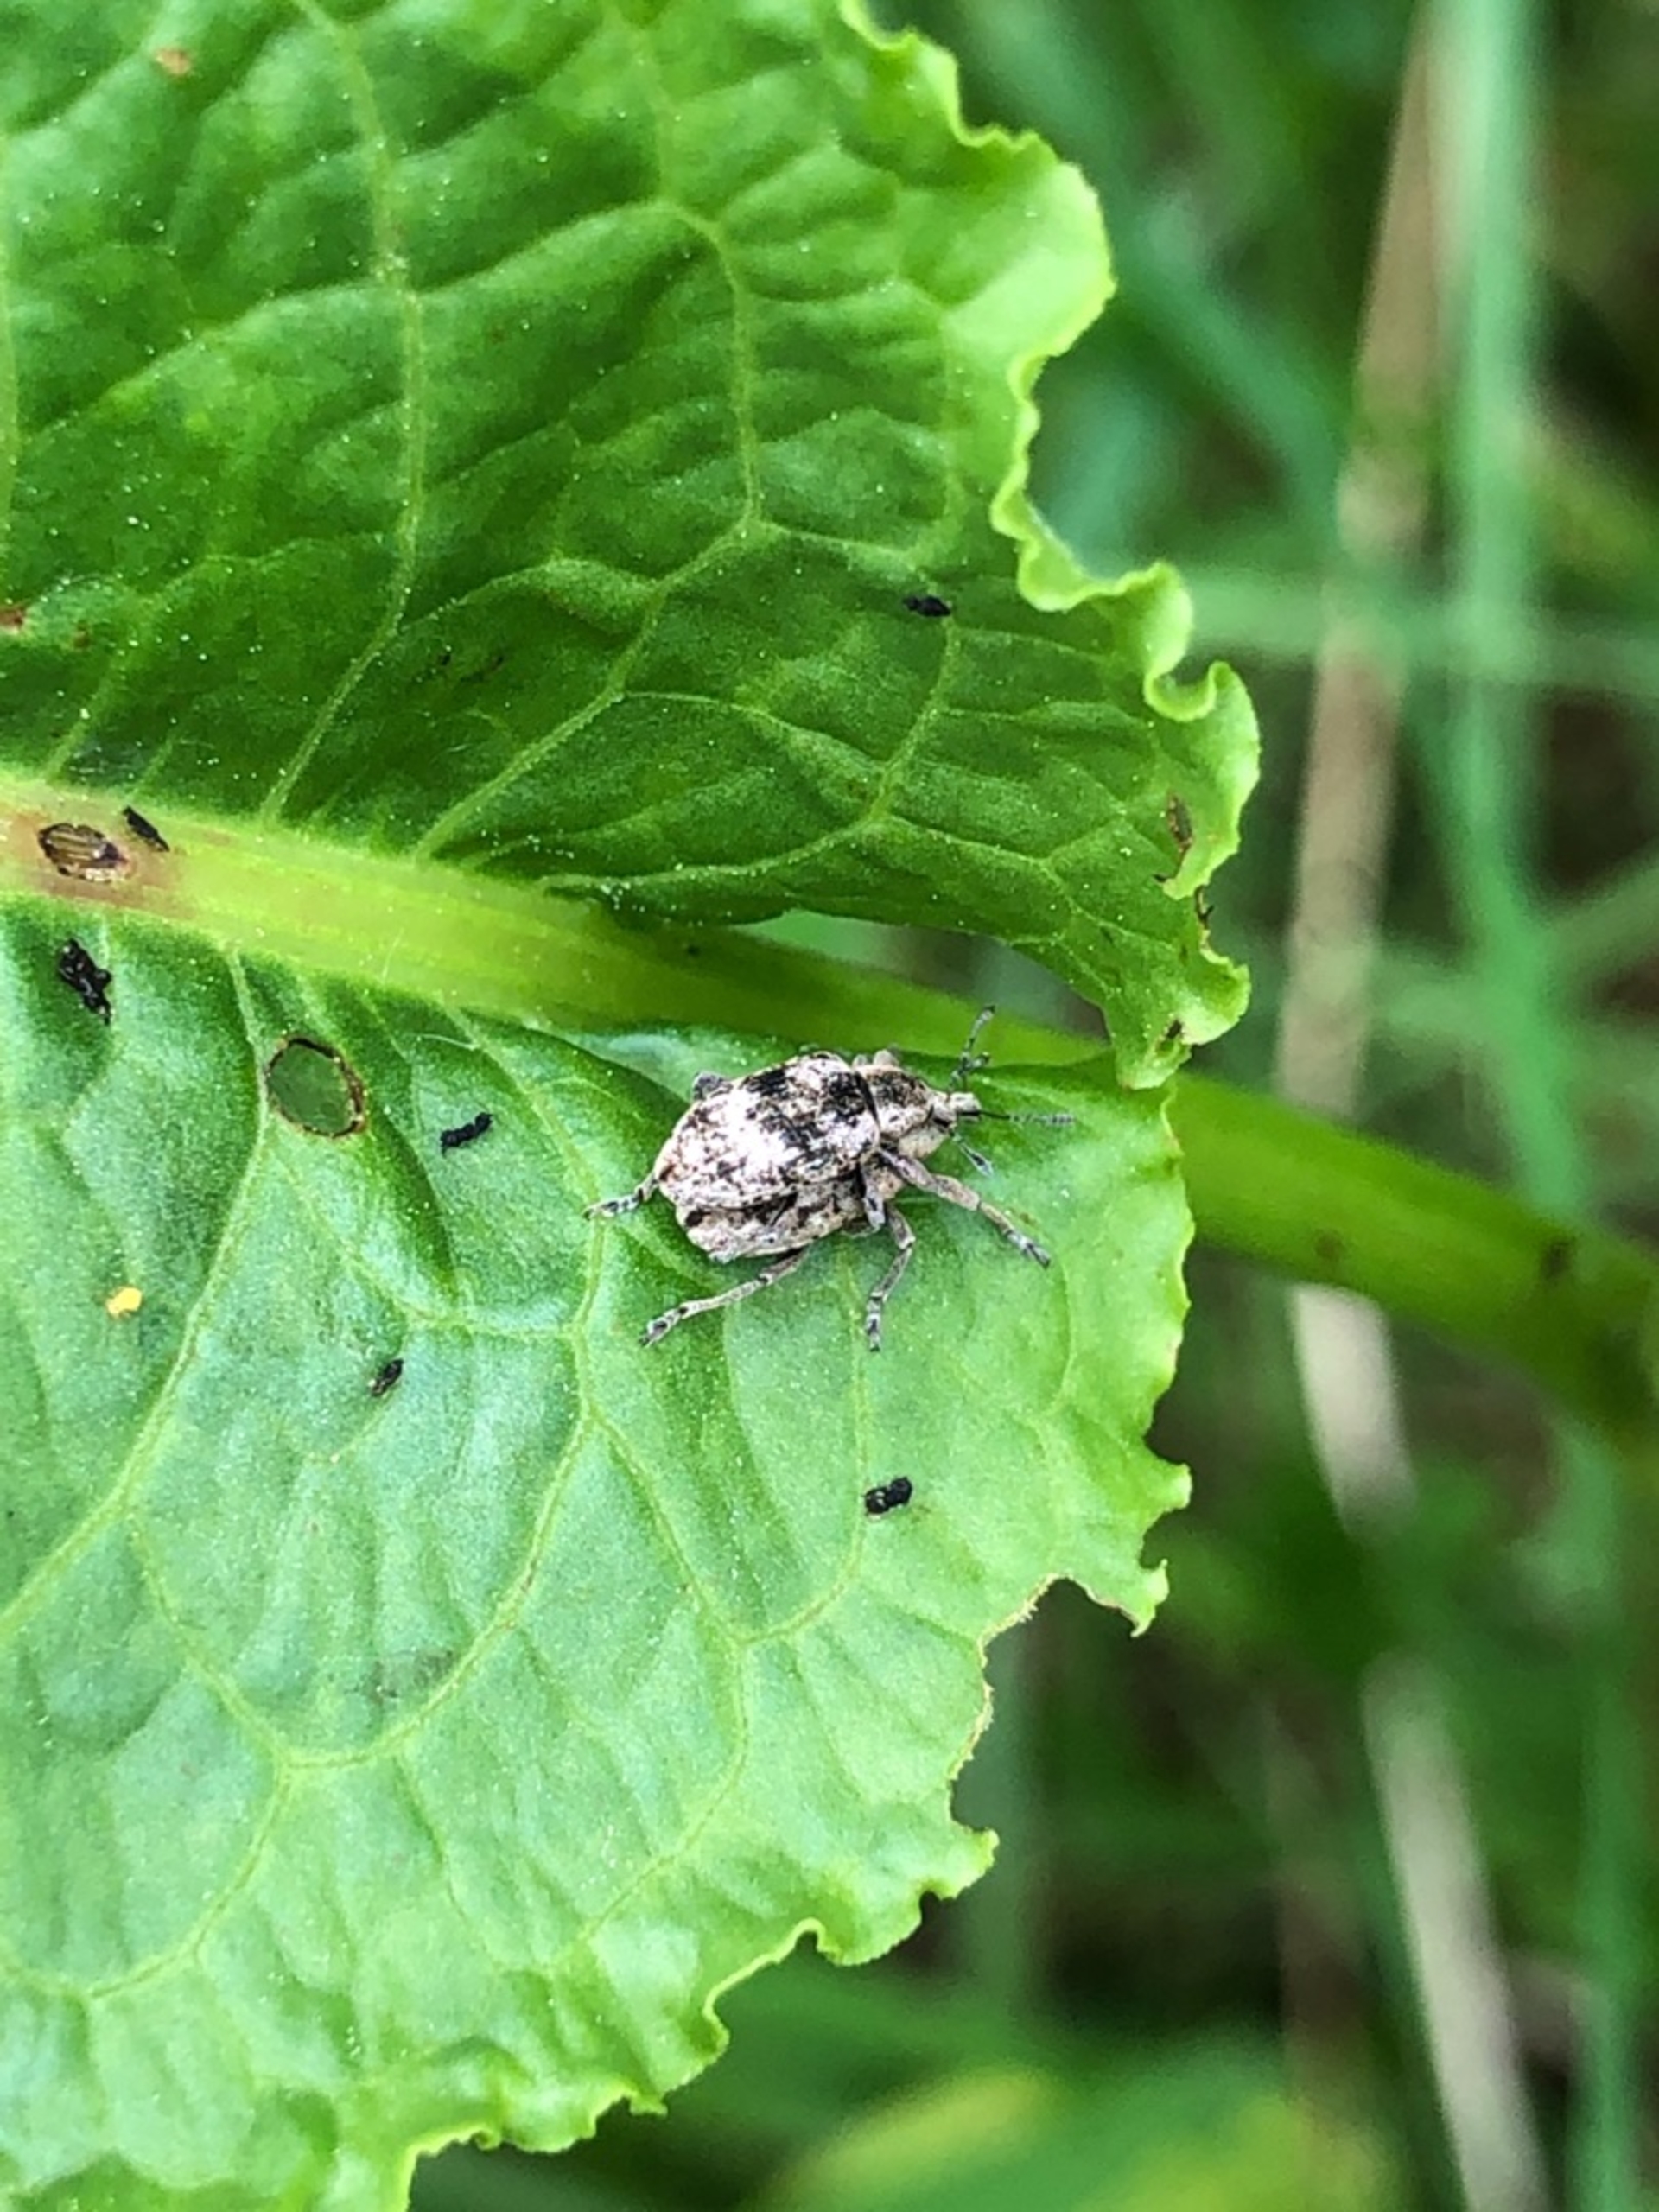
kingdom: Animalia
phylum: Arthropoda
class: Insecta
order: Coleoptera
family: Curculionidae
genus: Hypera
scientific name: Hypera rumicis
